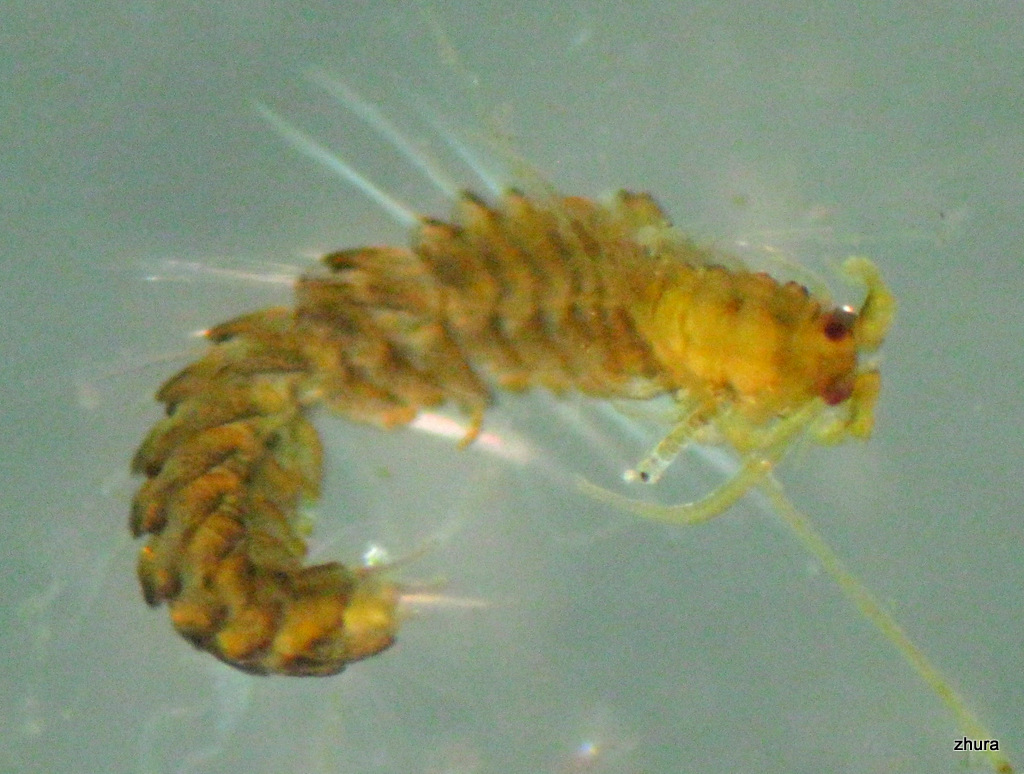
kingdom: Animalia
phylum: Annelida
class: Polychaeta
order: Phyllodocida
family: Syllidae
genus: Proceraea
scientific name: Proceraea prismatica
